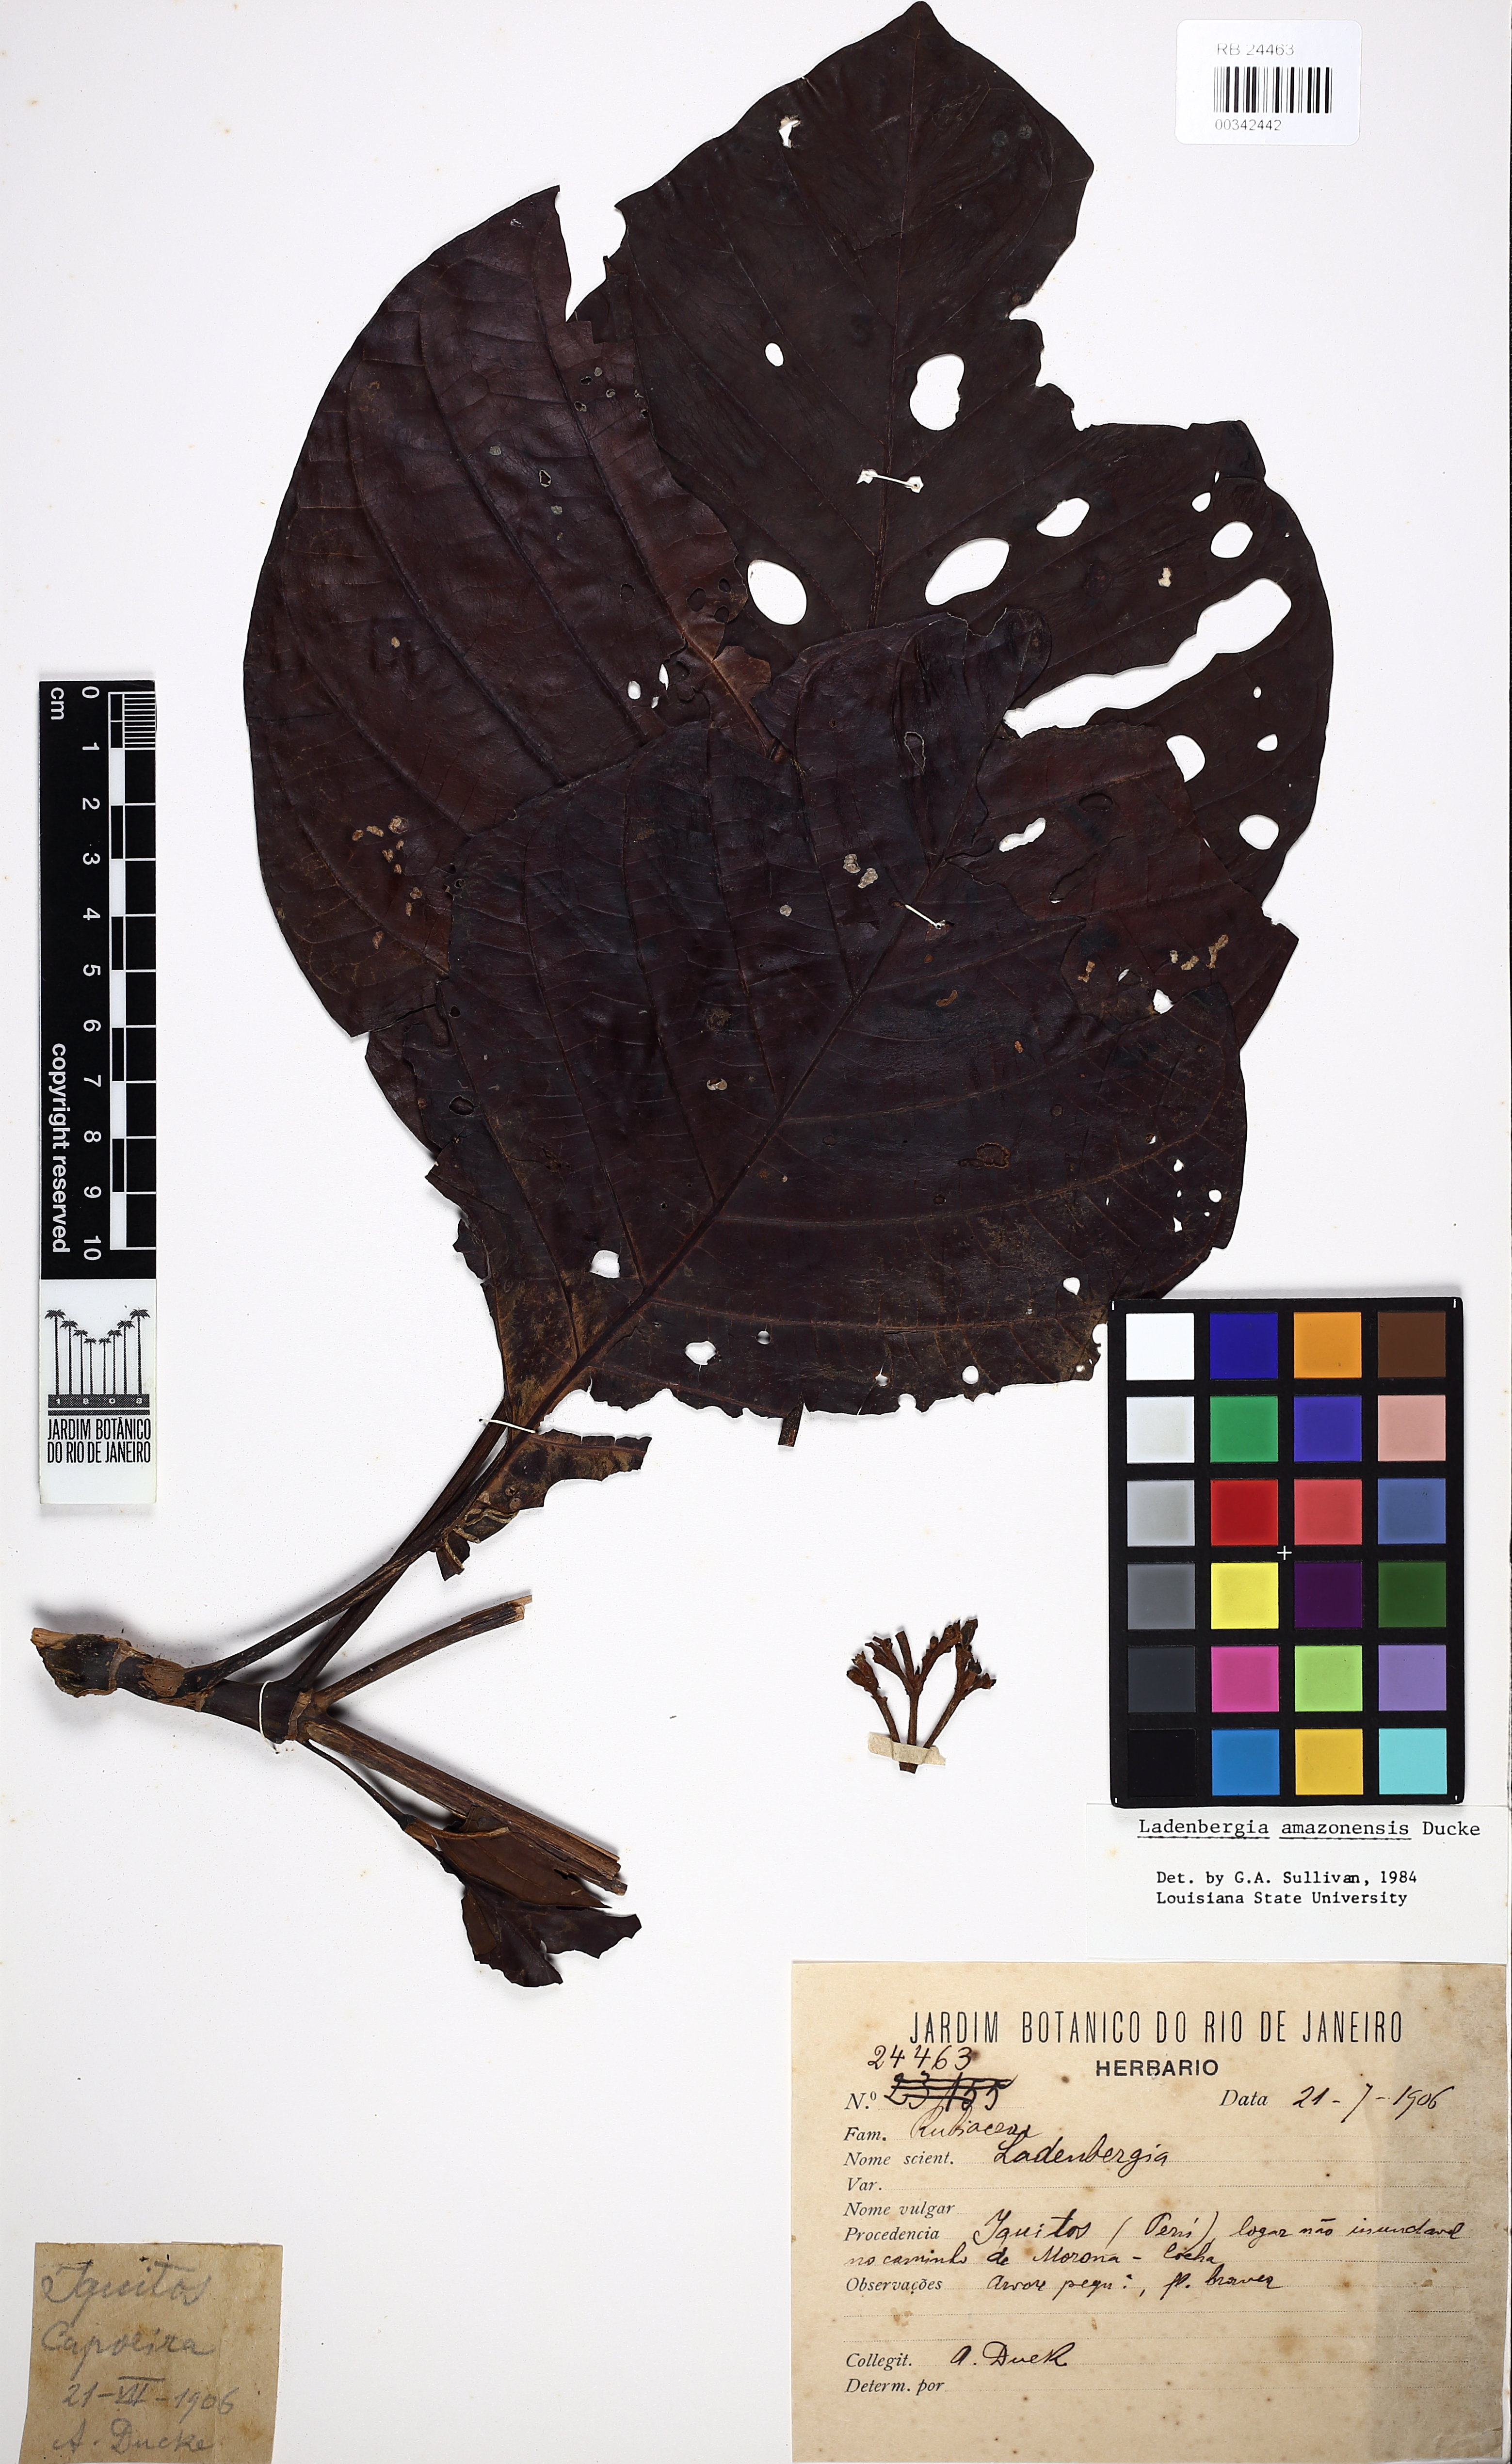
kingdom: Plantae
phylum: Tracheophyta
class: Magnoliopsida
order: Gentianales
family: Rubiaceae
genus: Ladenbergia
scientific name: Ladenbergia amazonensis
